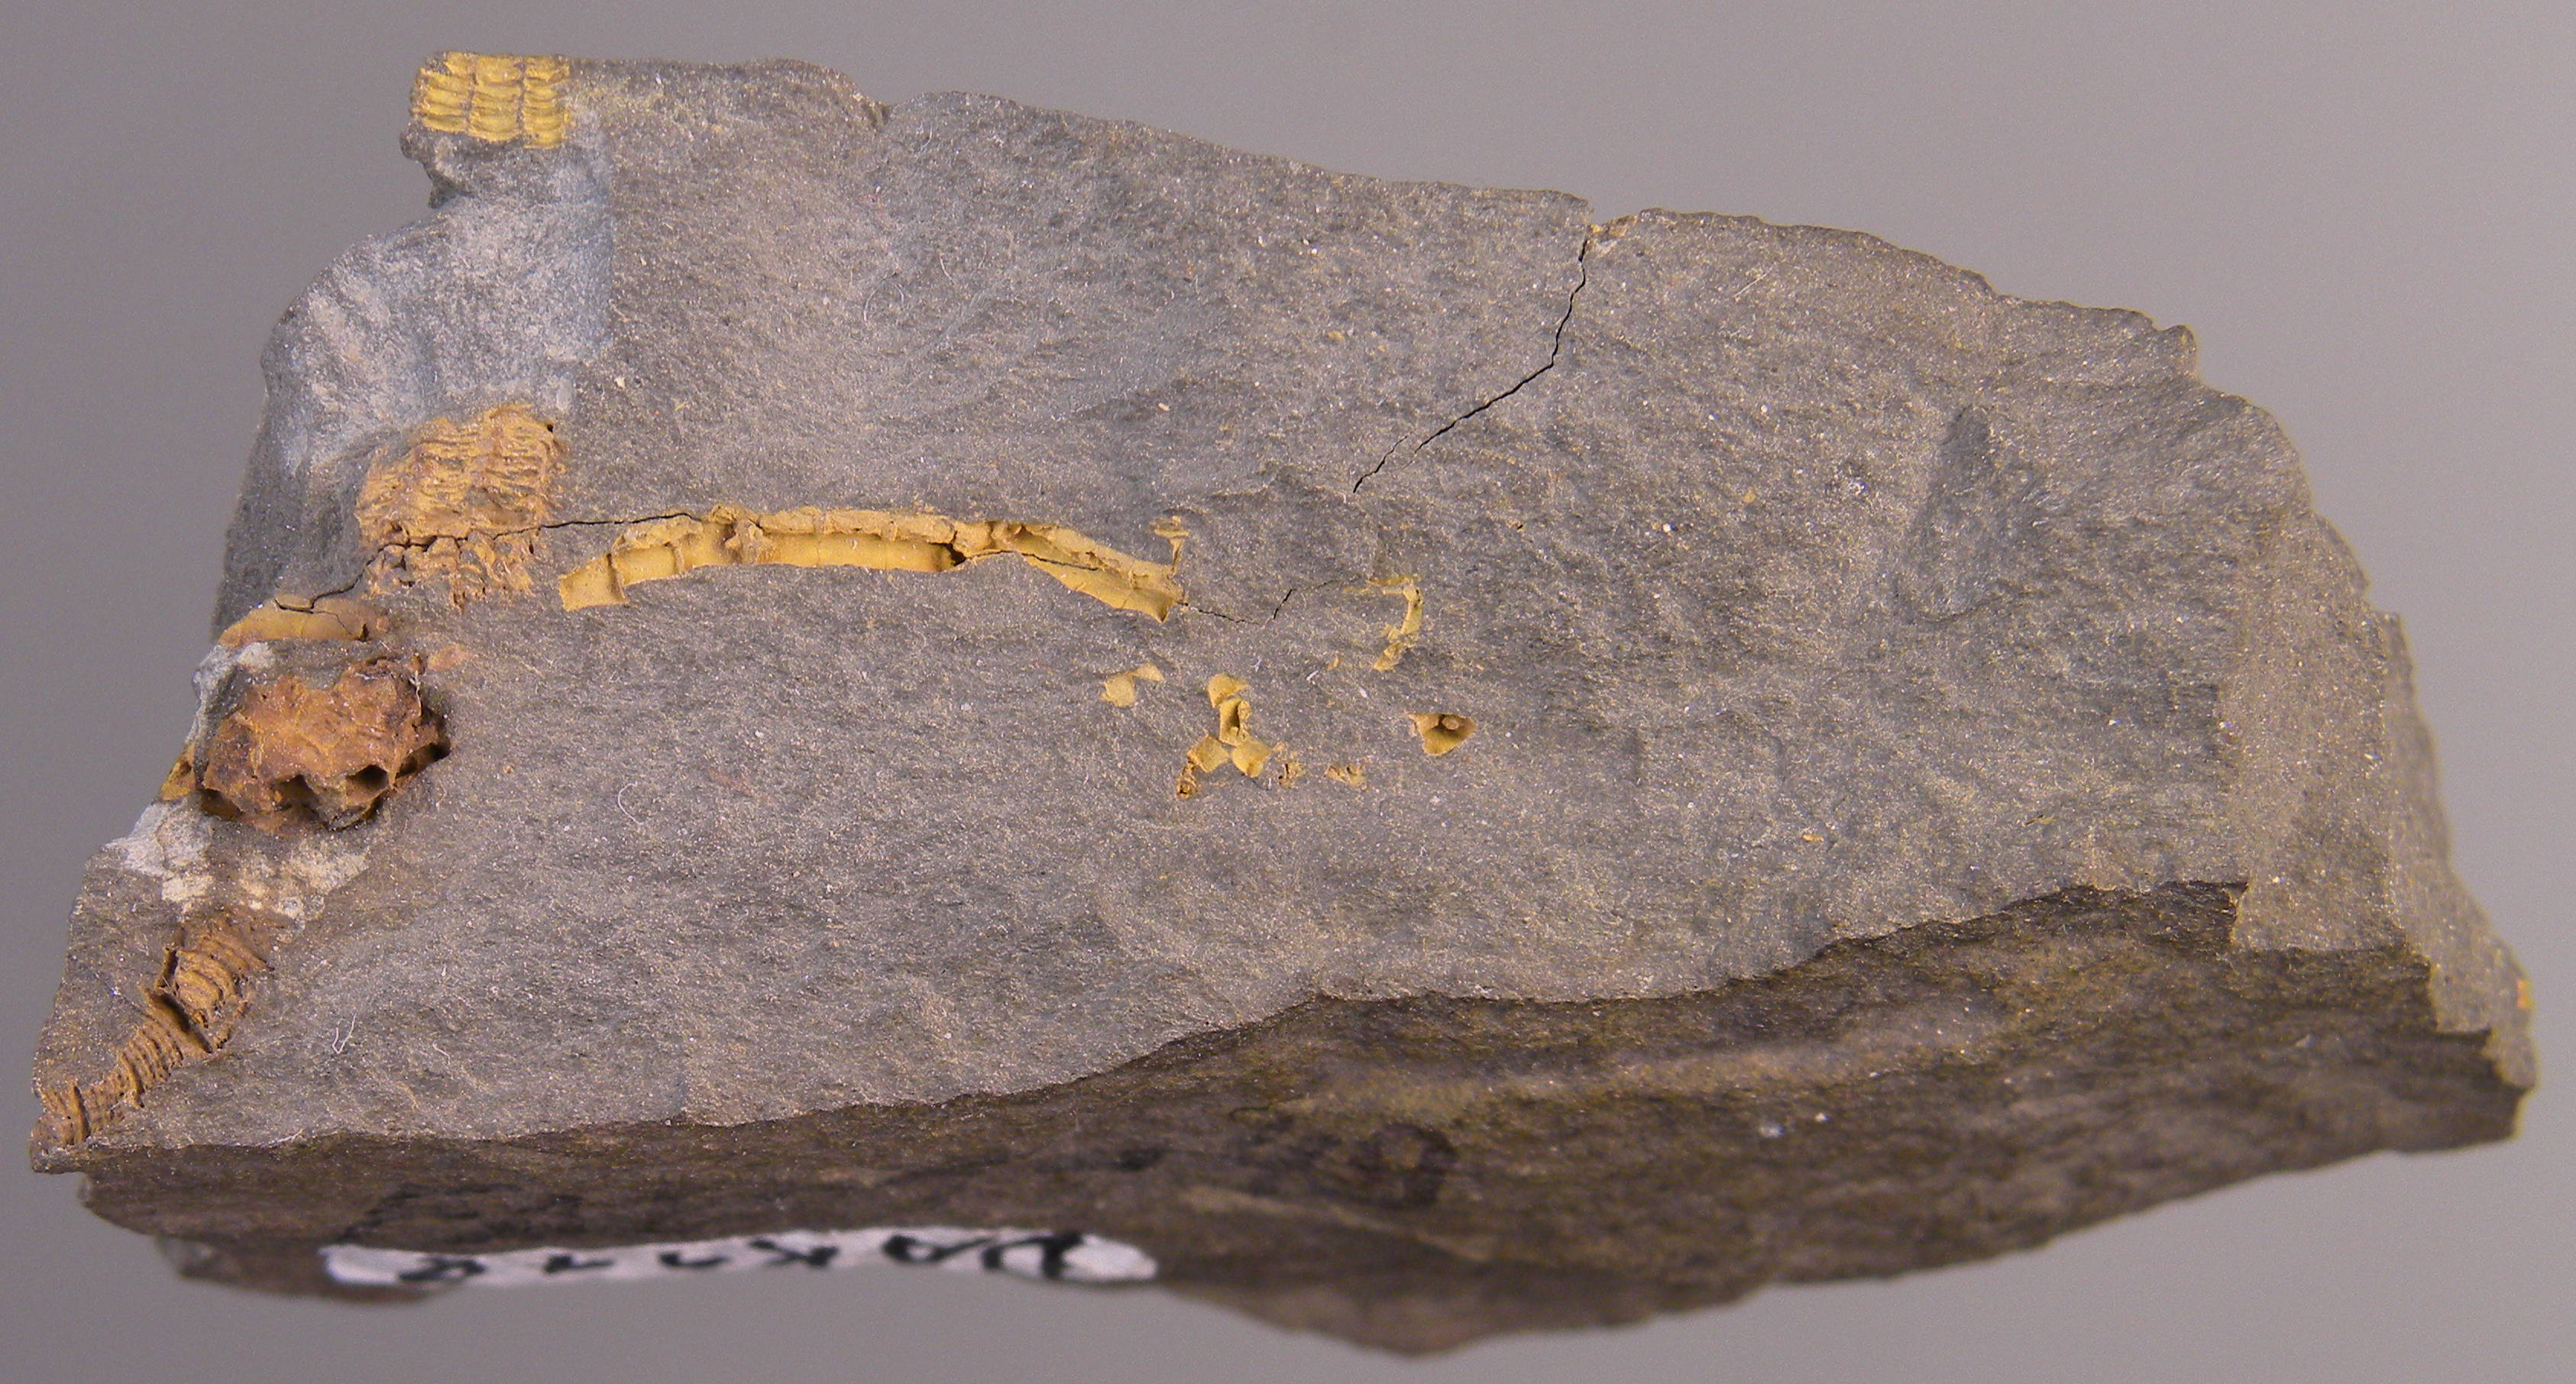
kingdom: Animalia
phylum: Echinodermata
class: Crinoidea
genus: Gastrocrinus
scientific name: Gastrocrinus
